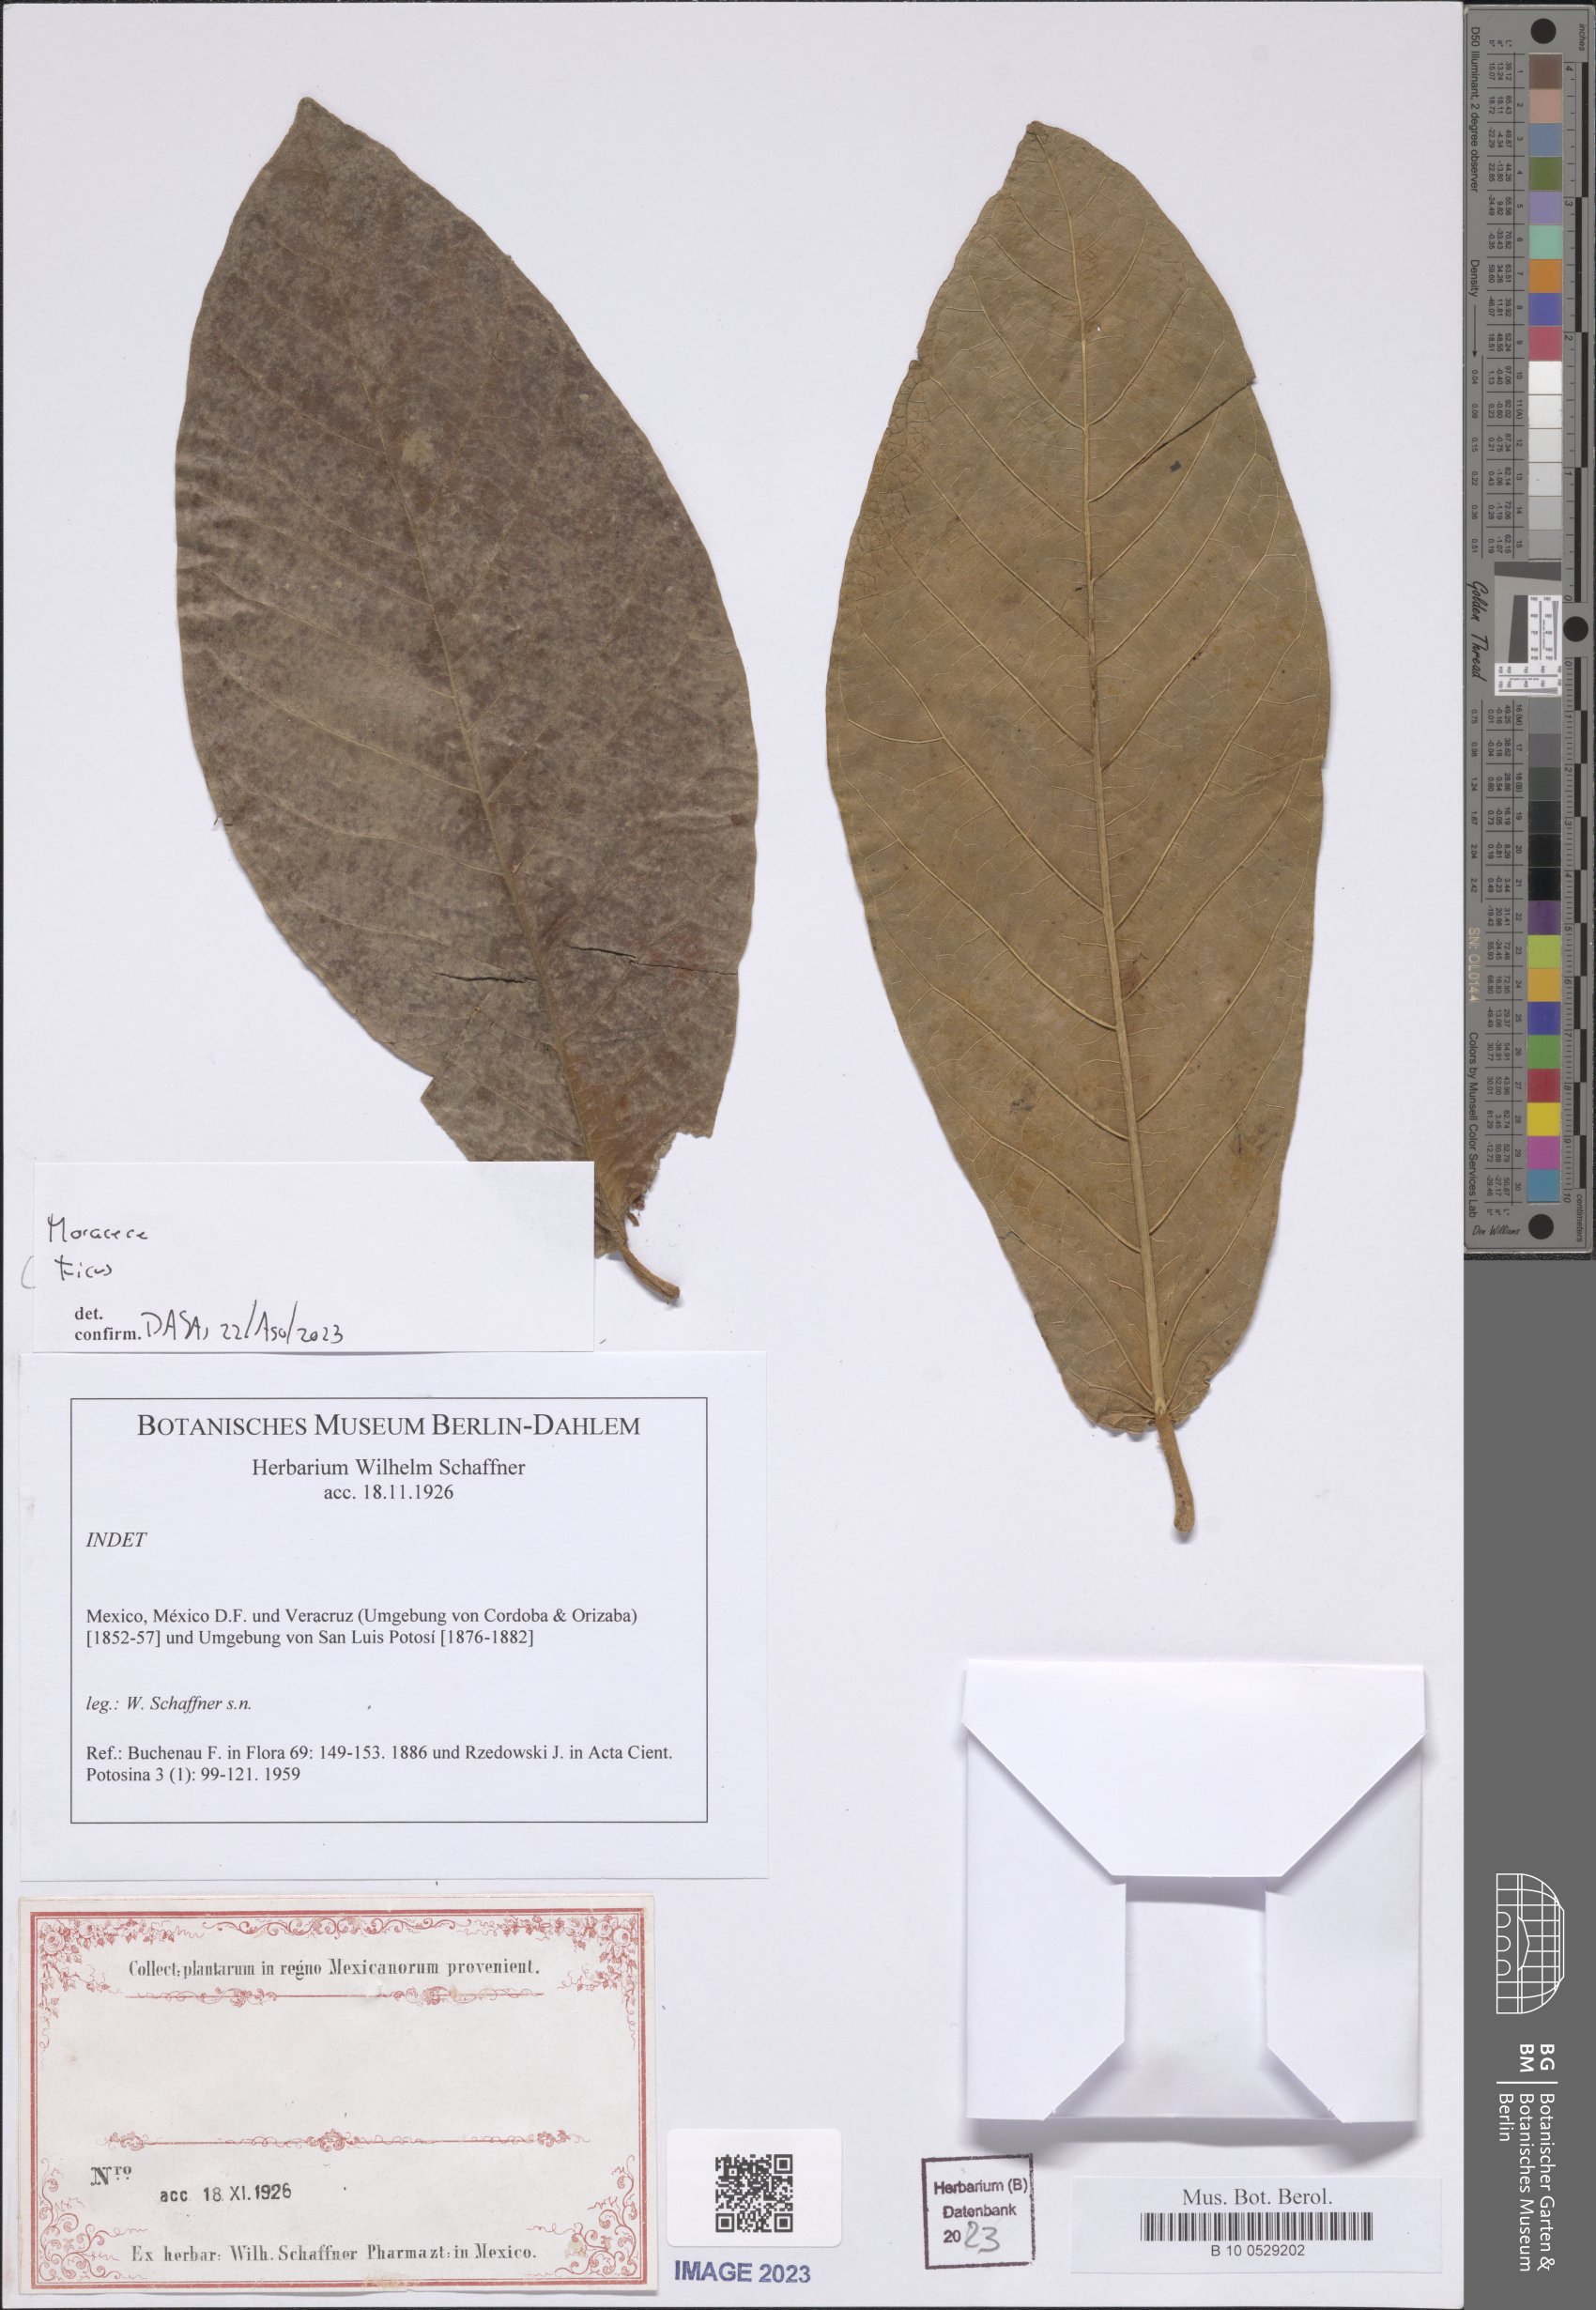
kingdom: Plantae
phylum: Tracheophyta
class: Magnoliopsida
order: Rosales
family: Moraceae
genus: Ficus
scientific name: Ficus
